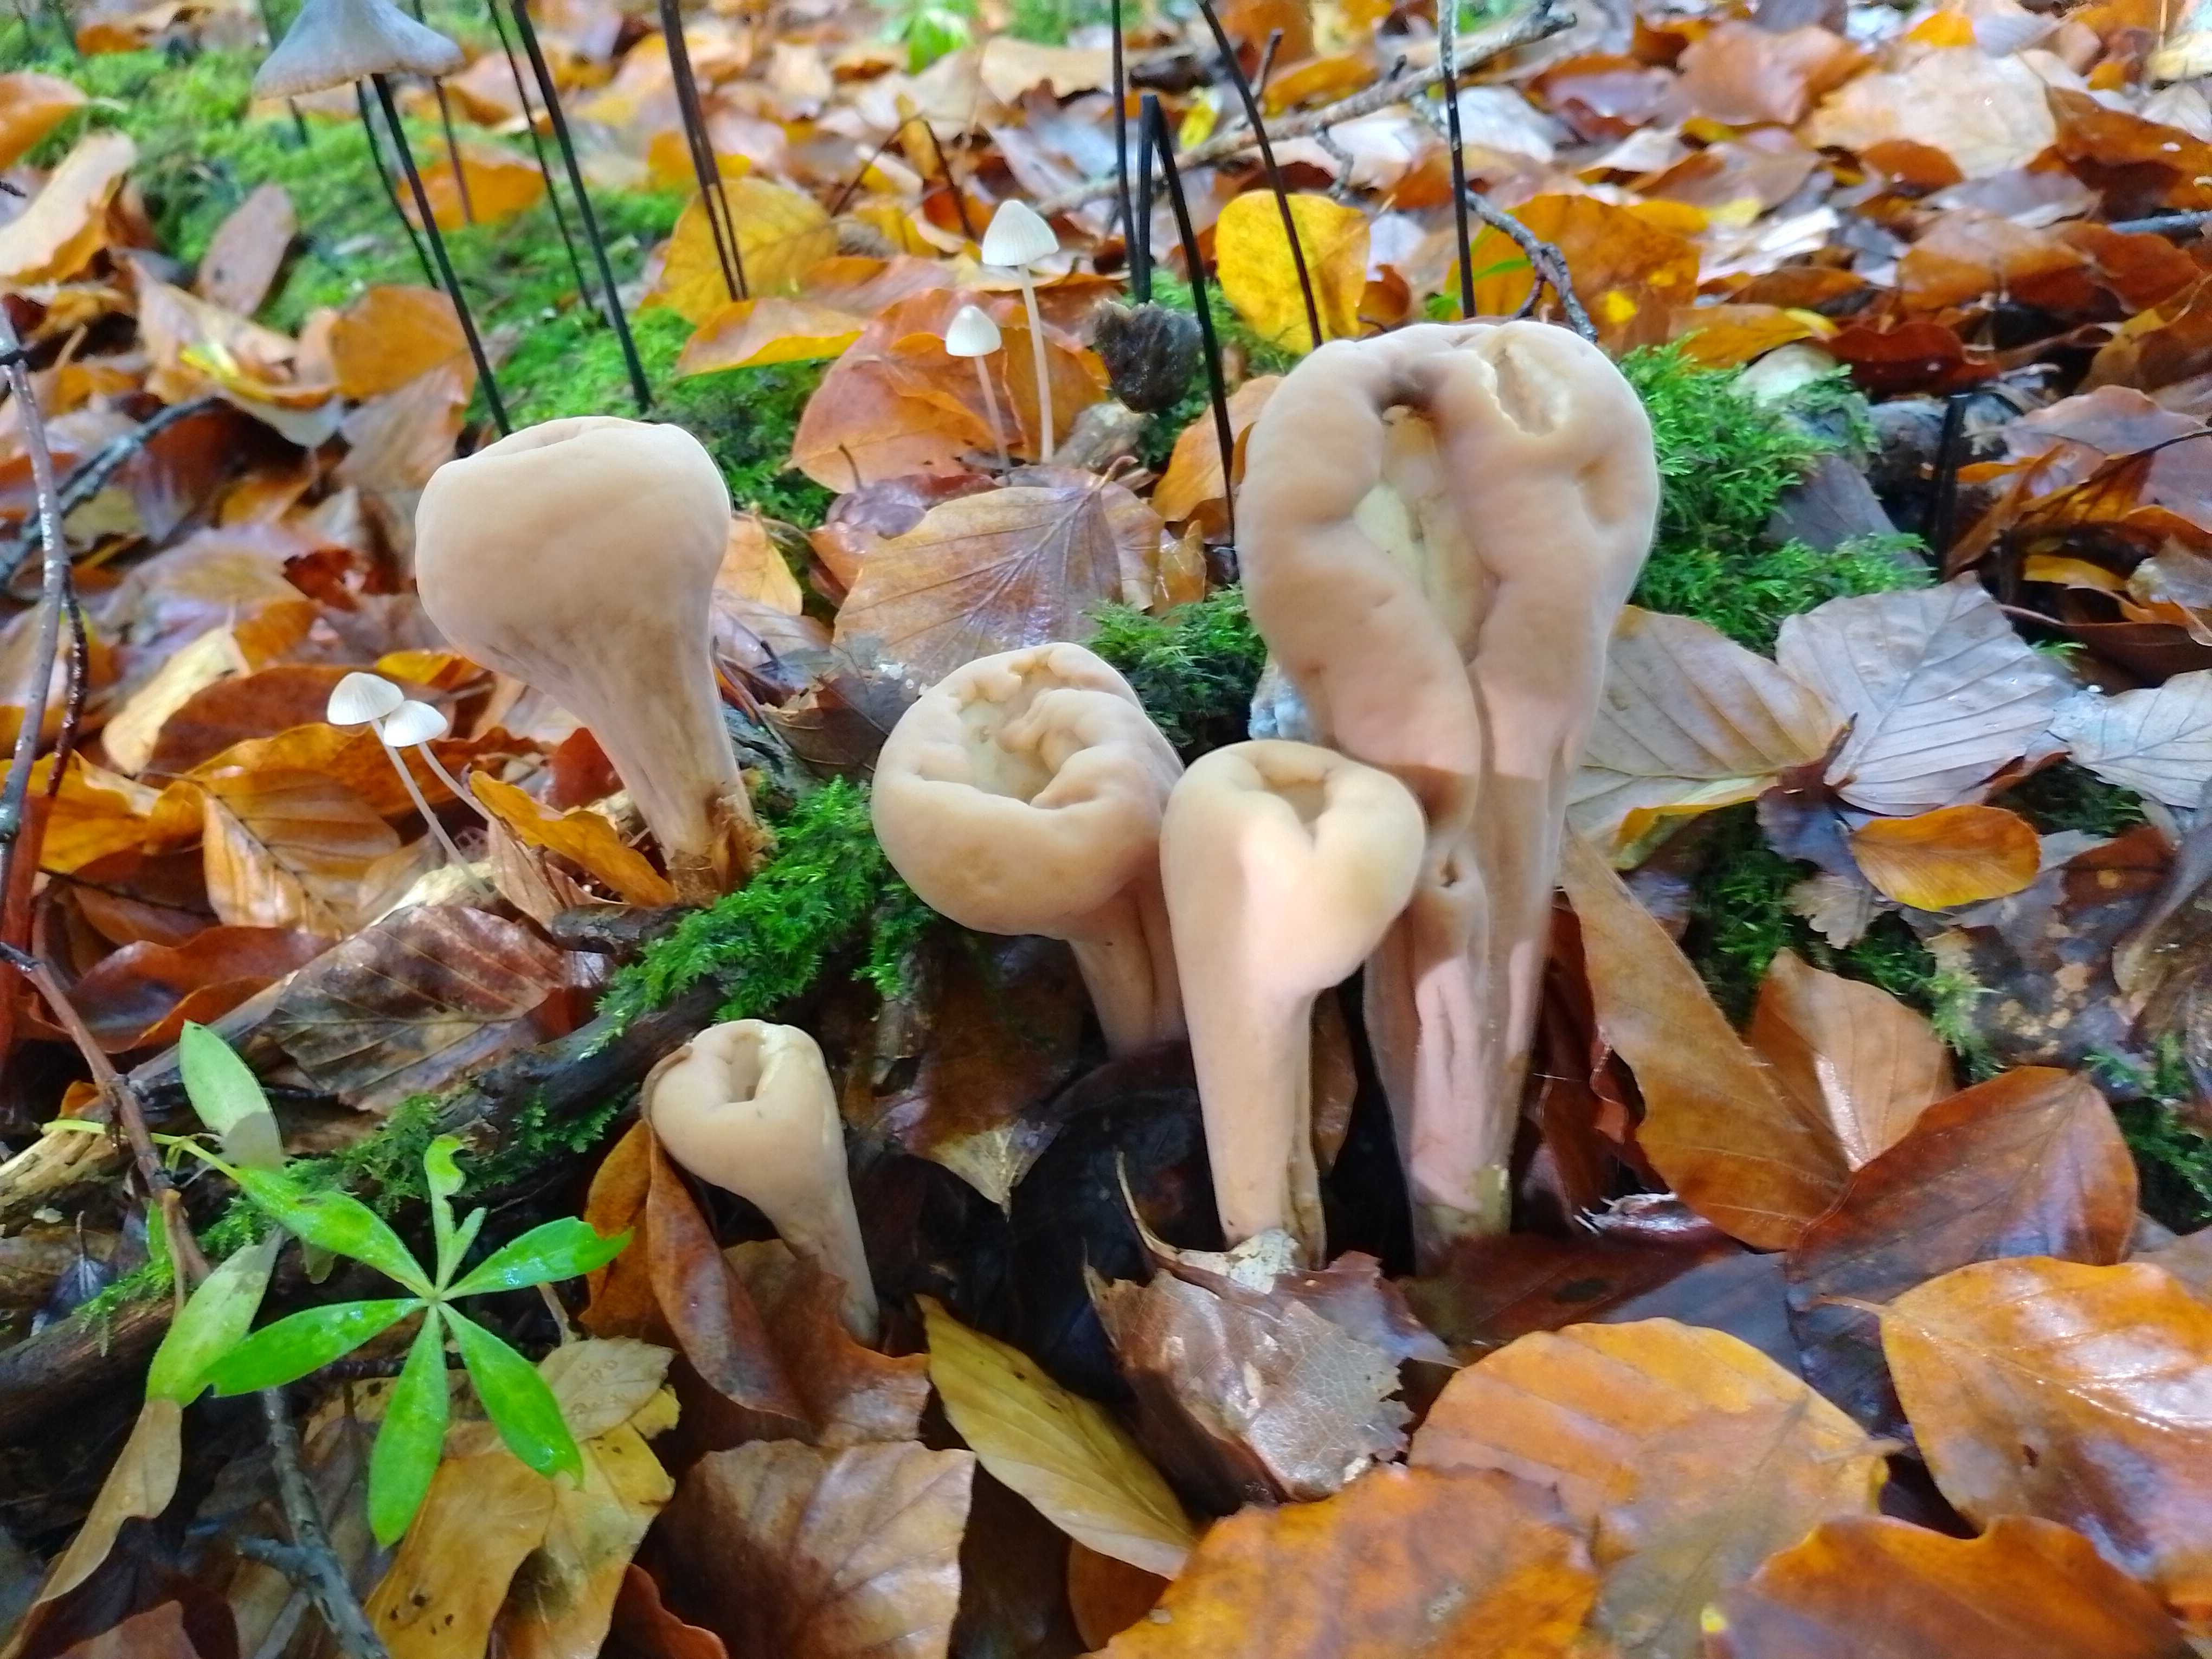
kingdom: Fungi
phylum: Basidiomycota
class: Agaricomycetes
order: Gomphales
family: Clavariadelphaceae
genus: Clavariadelphus
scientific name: Clavariadelphus pistillaris
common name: herkules-kæmpekølle
